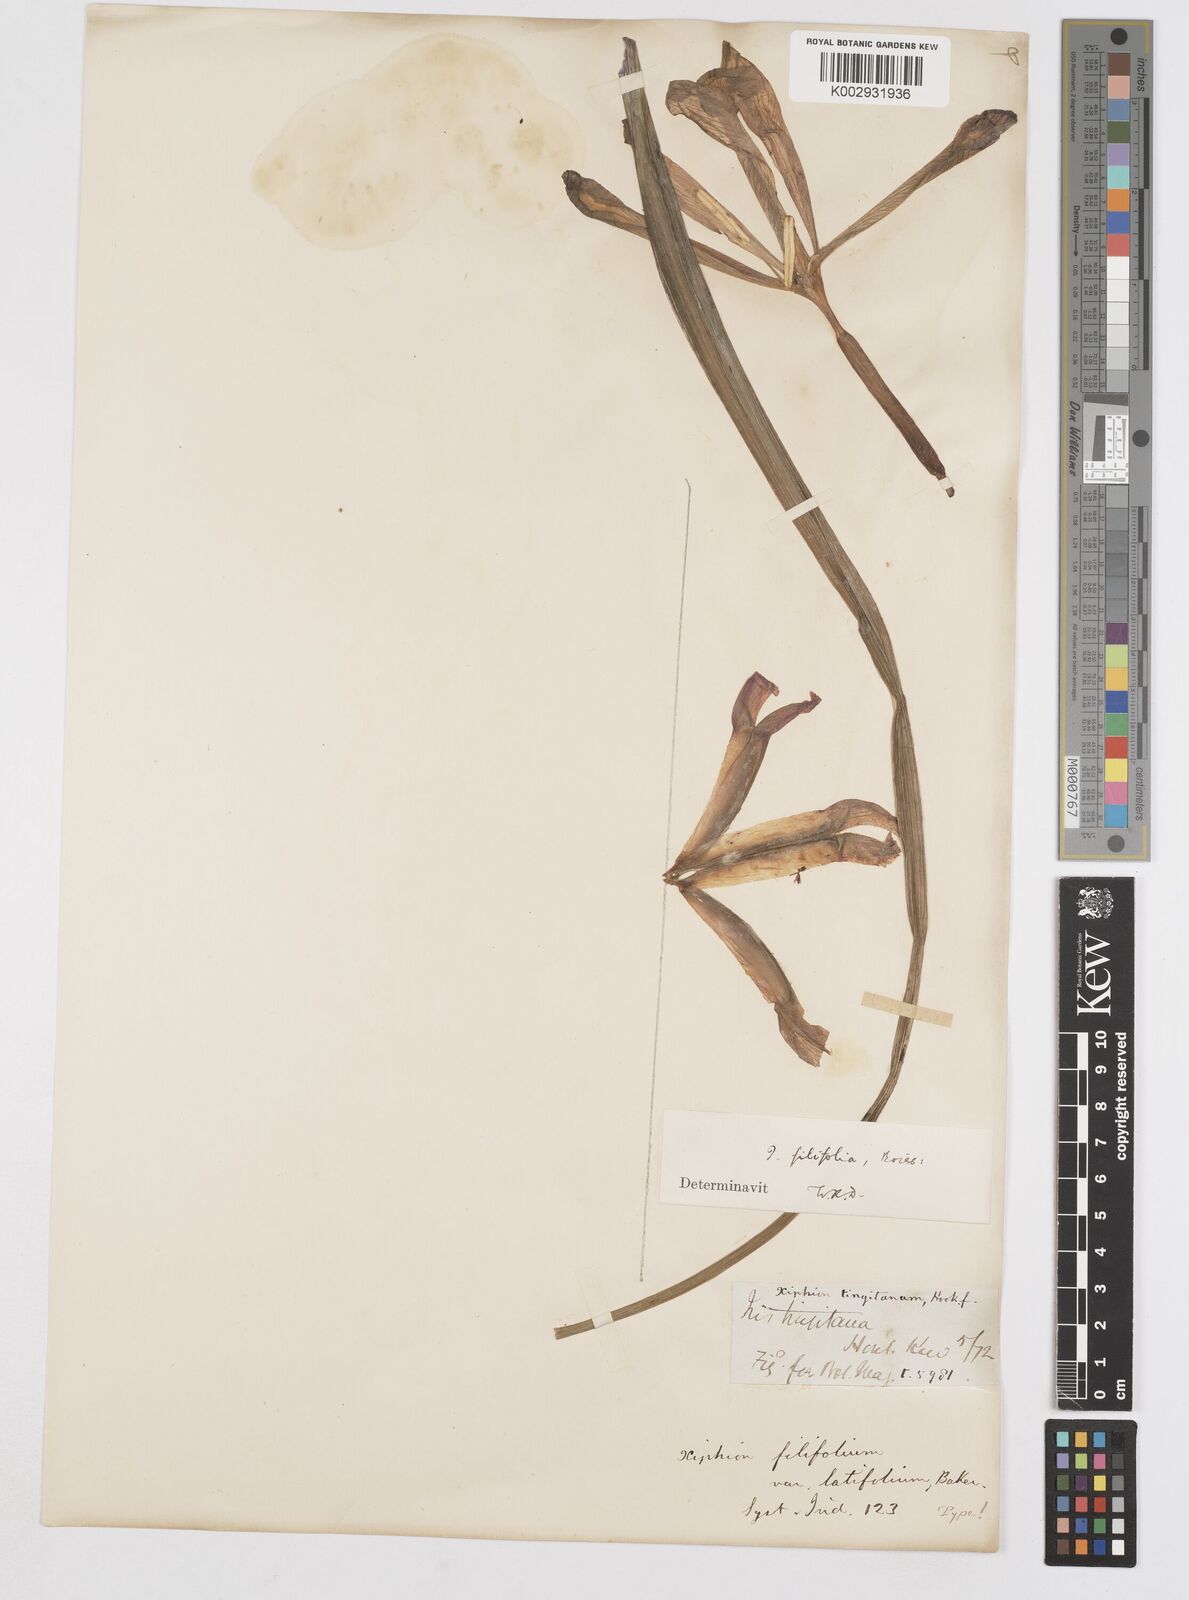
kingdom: Plantae
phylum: Tracheophyta
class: Liliopsida
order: Asparagales
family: Iridaceae
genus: Iris
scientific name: Iris filifolia
